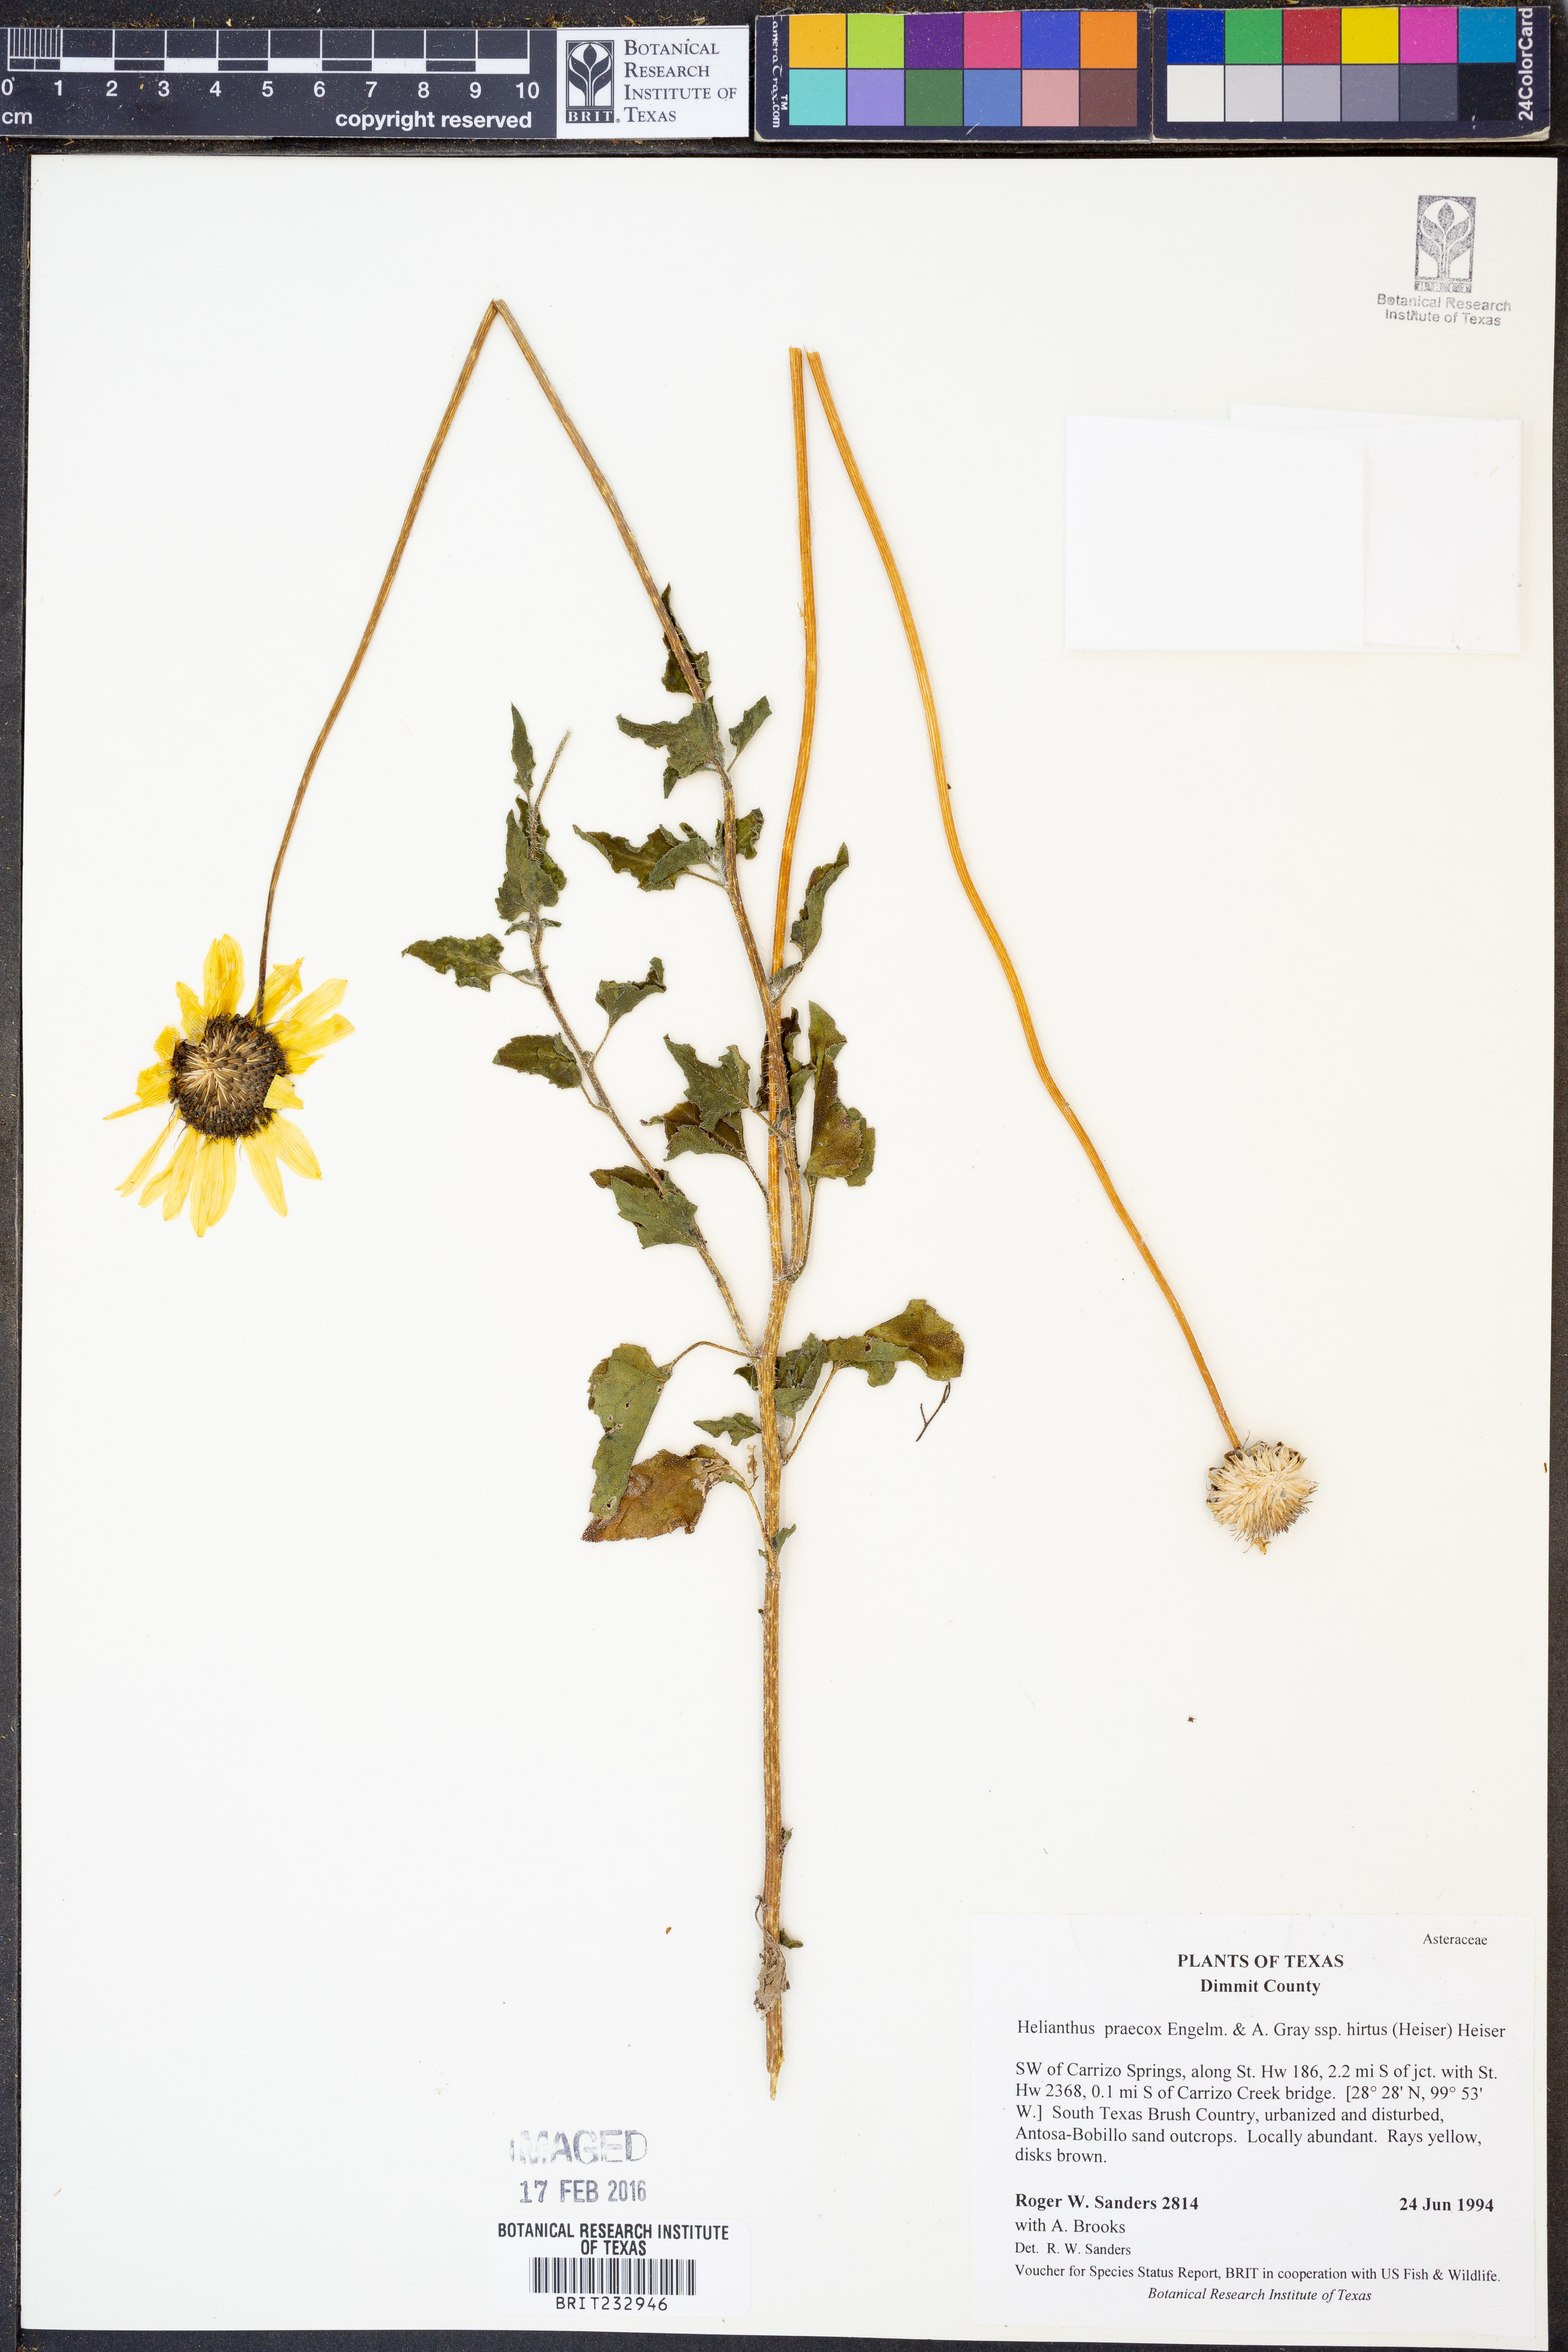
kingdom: Plantae
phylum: Tracheophyta
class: Magnoliopsida
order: Asterales
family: Asteraceae
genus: Helianthus
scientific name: Helianthus praecox
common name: Texas sunflower
